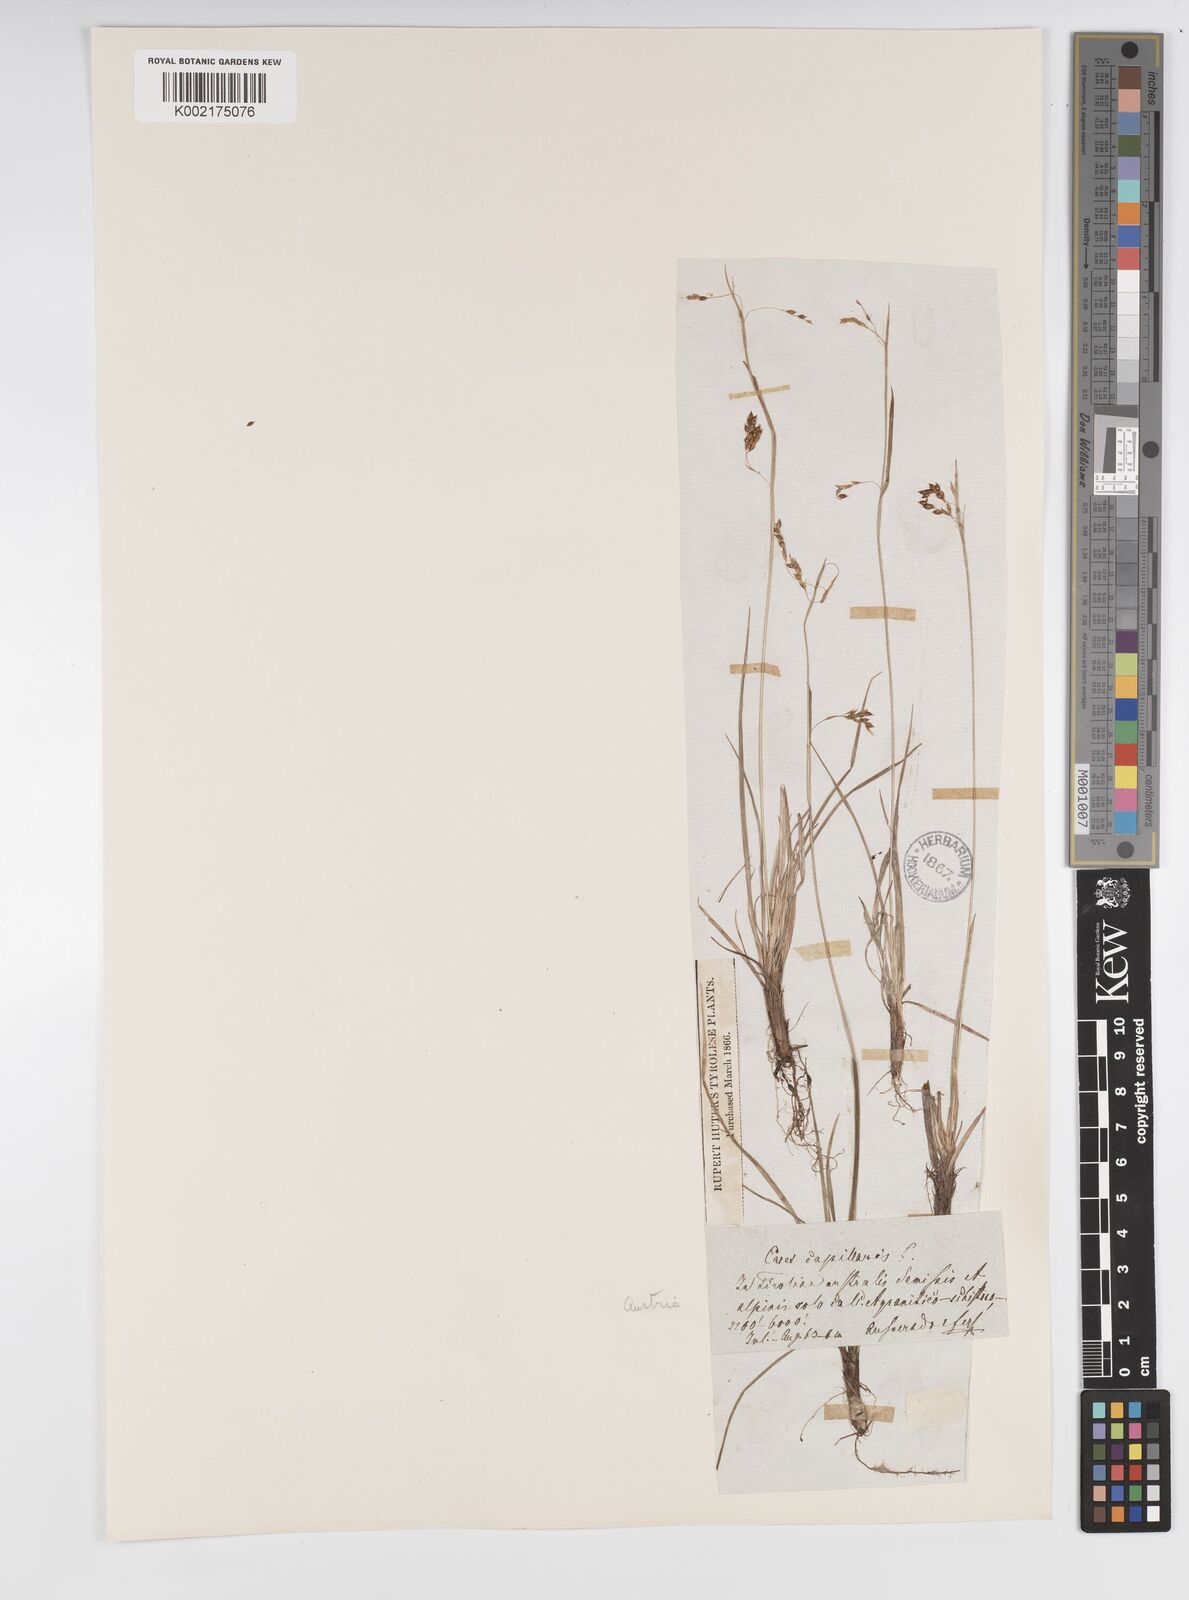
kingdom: Plantae
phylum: Tracheophyta
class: Liliopsida
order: Poales
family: Cyperaceae
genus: Carex
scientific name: Carex capillaris
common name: Hair sedge
